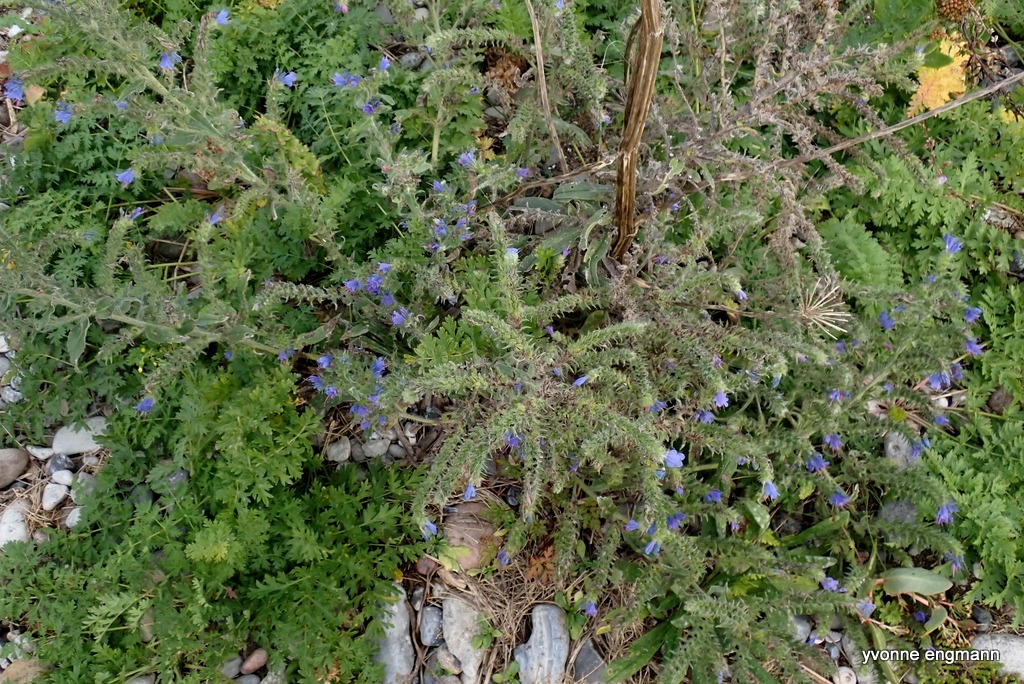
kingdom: Plantae
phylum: Tracheophyta
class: Magnoliopsida
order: Boraginales
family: Boraginaceae
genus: Echium
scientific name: Echium vulgare
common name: Slangehoved
